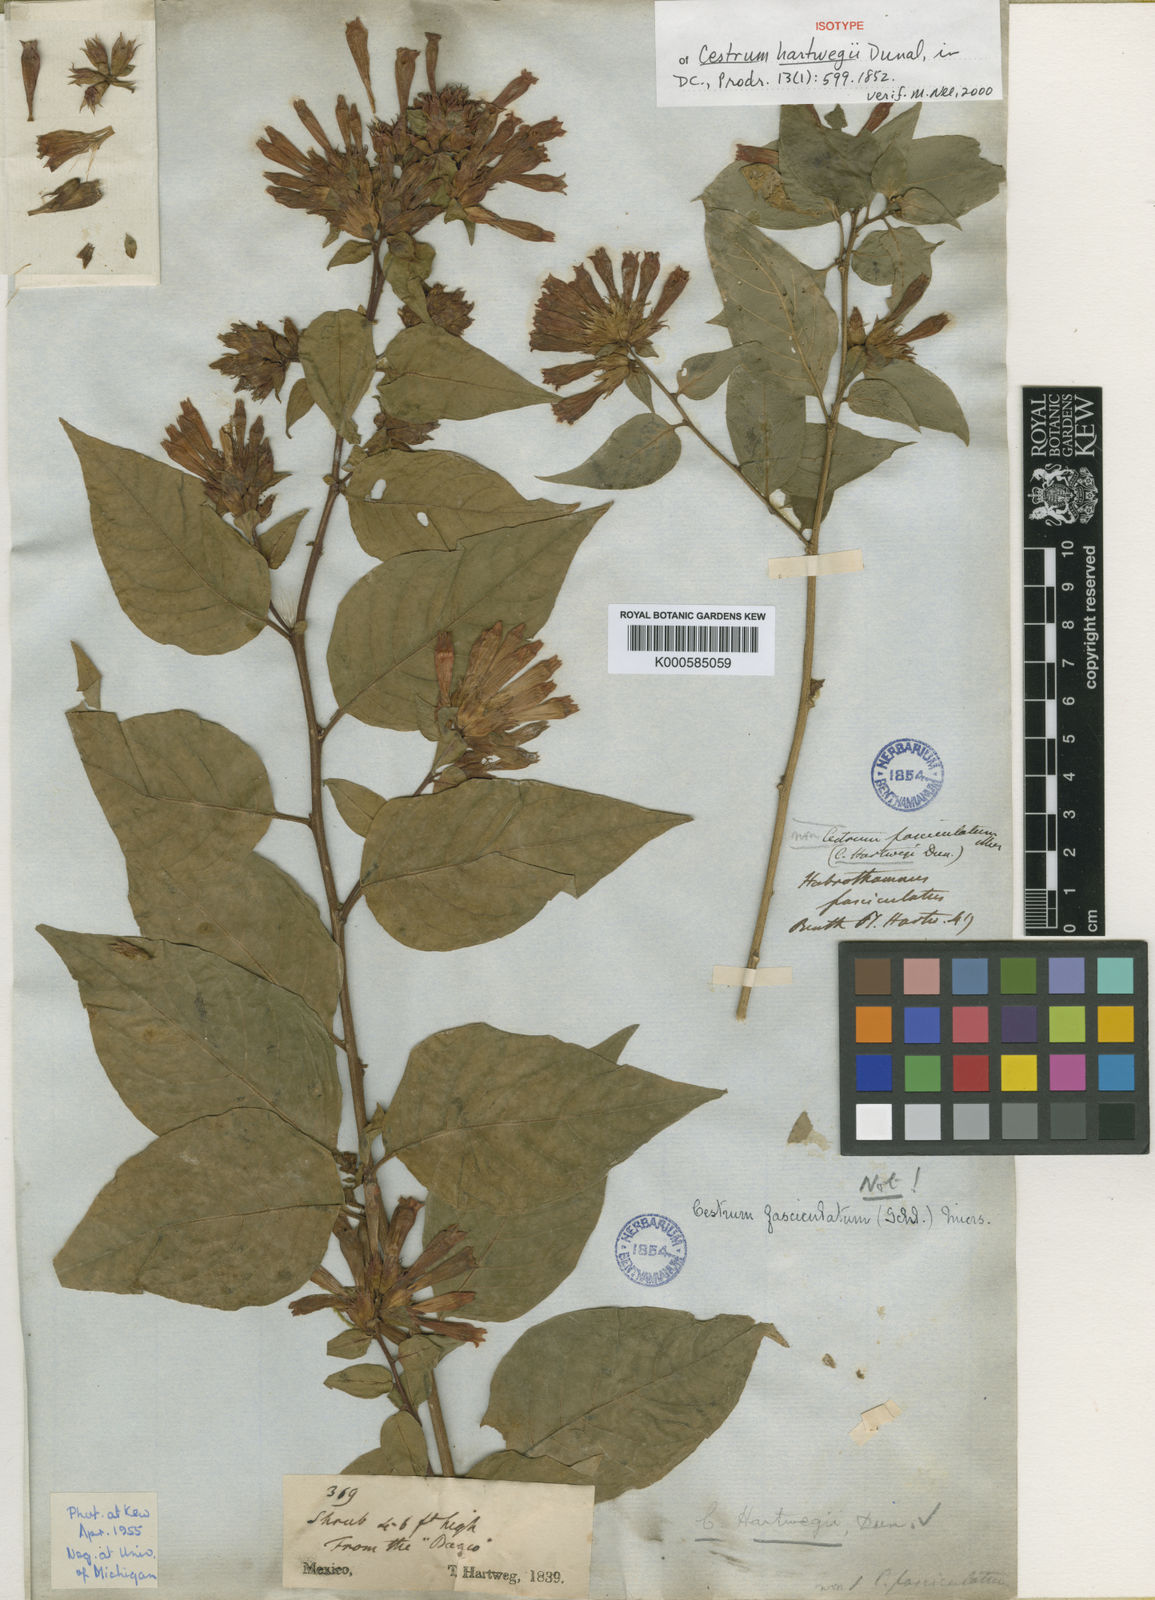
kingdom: Plantae
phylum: Tracheophyta
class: Magnoliopsida
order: Solanales
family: Solanaceae
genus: Cestrum
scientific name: Cestrum hartwegii
